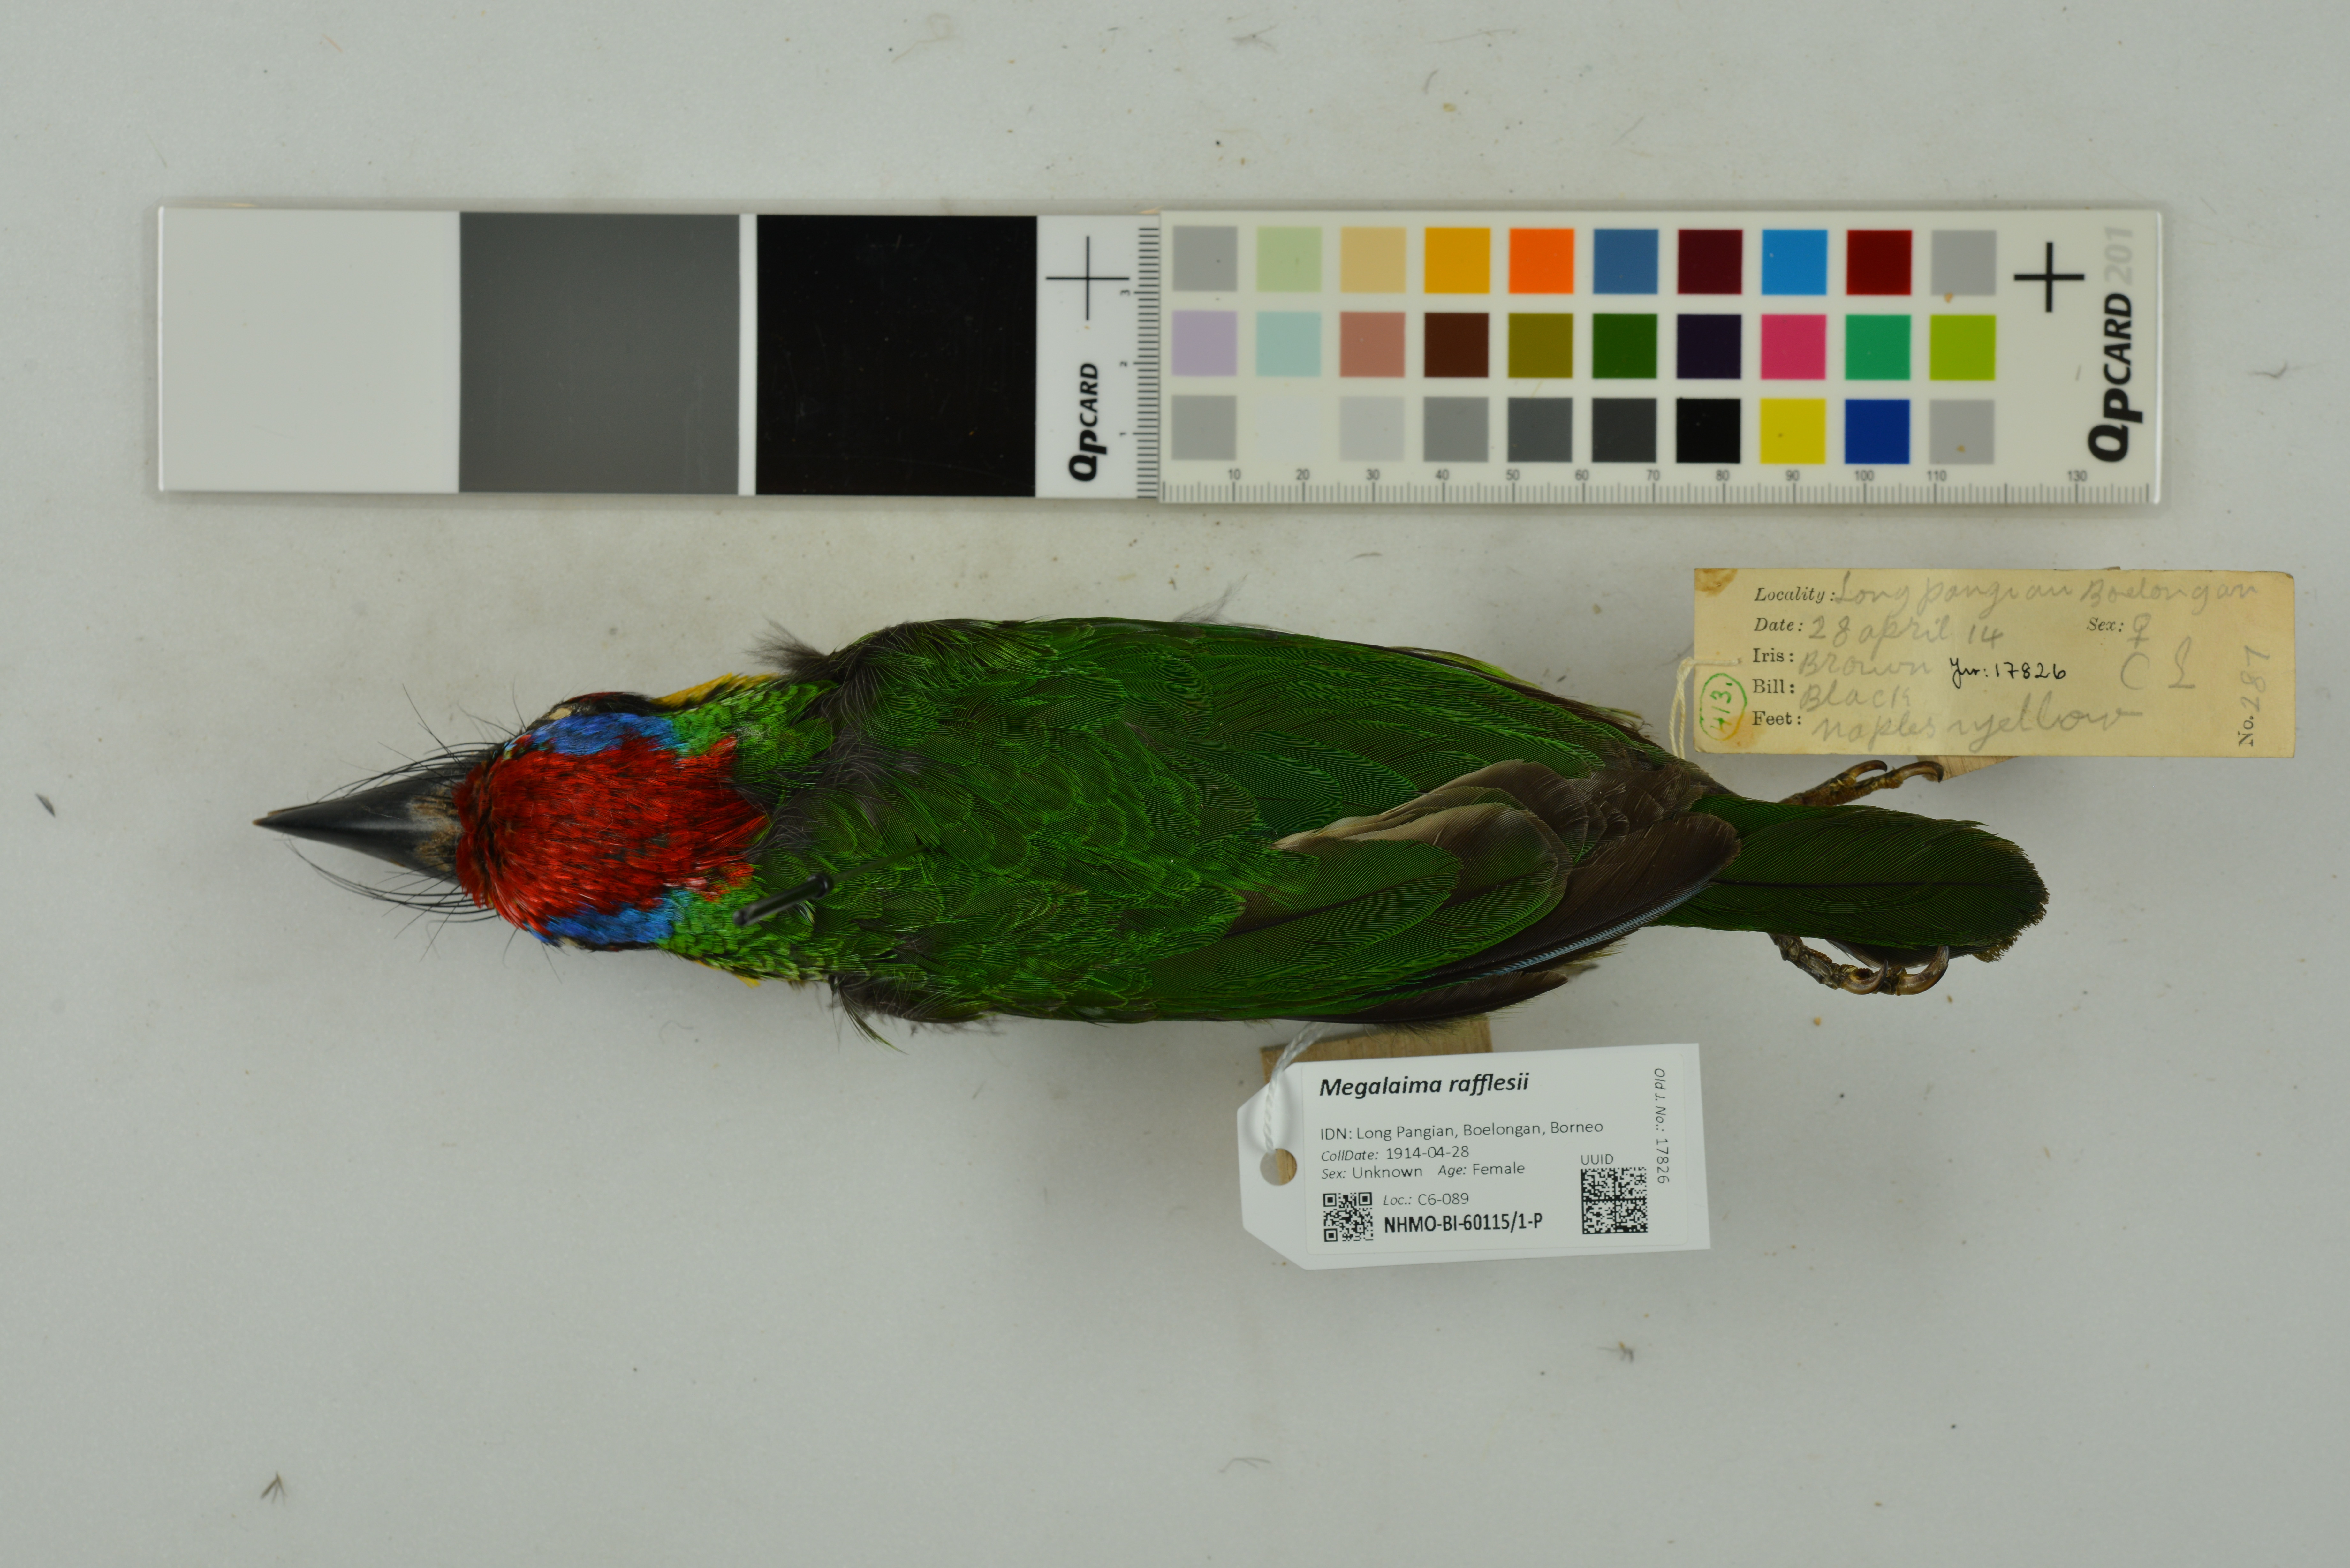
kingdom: Animalia
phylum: Chordata
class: Aves
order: Piciformes
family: Megalaimidae
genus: Psilopogon
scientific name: Psilopogon rafflesii
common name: Red-crowned barbet
